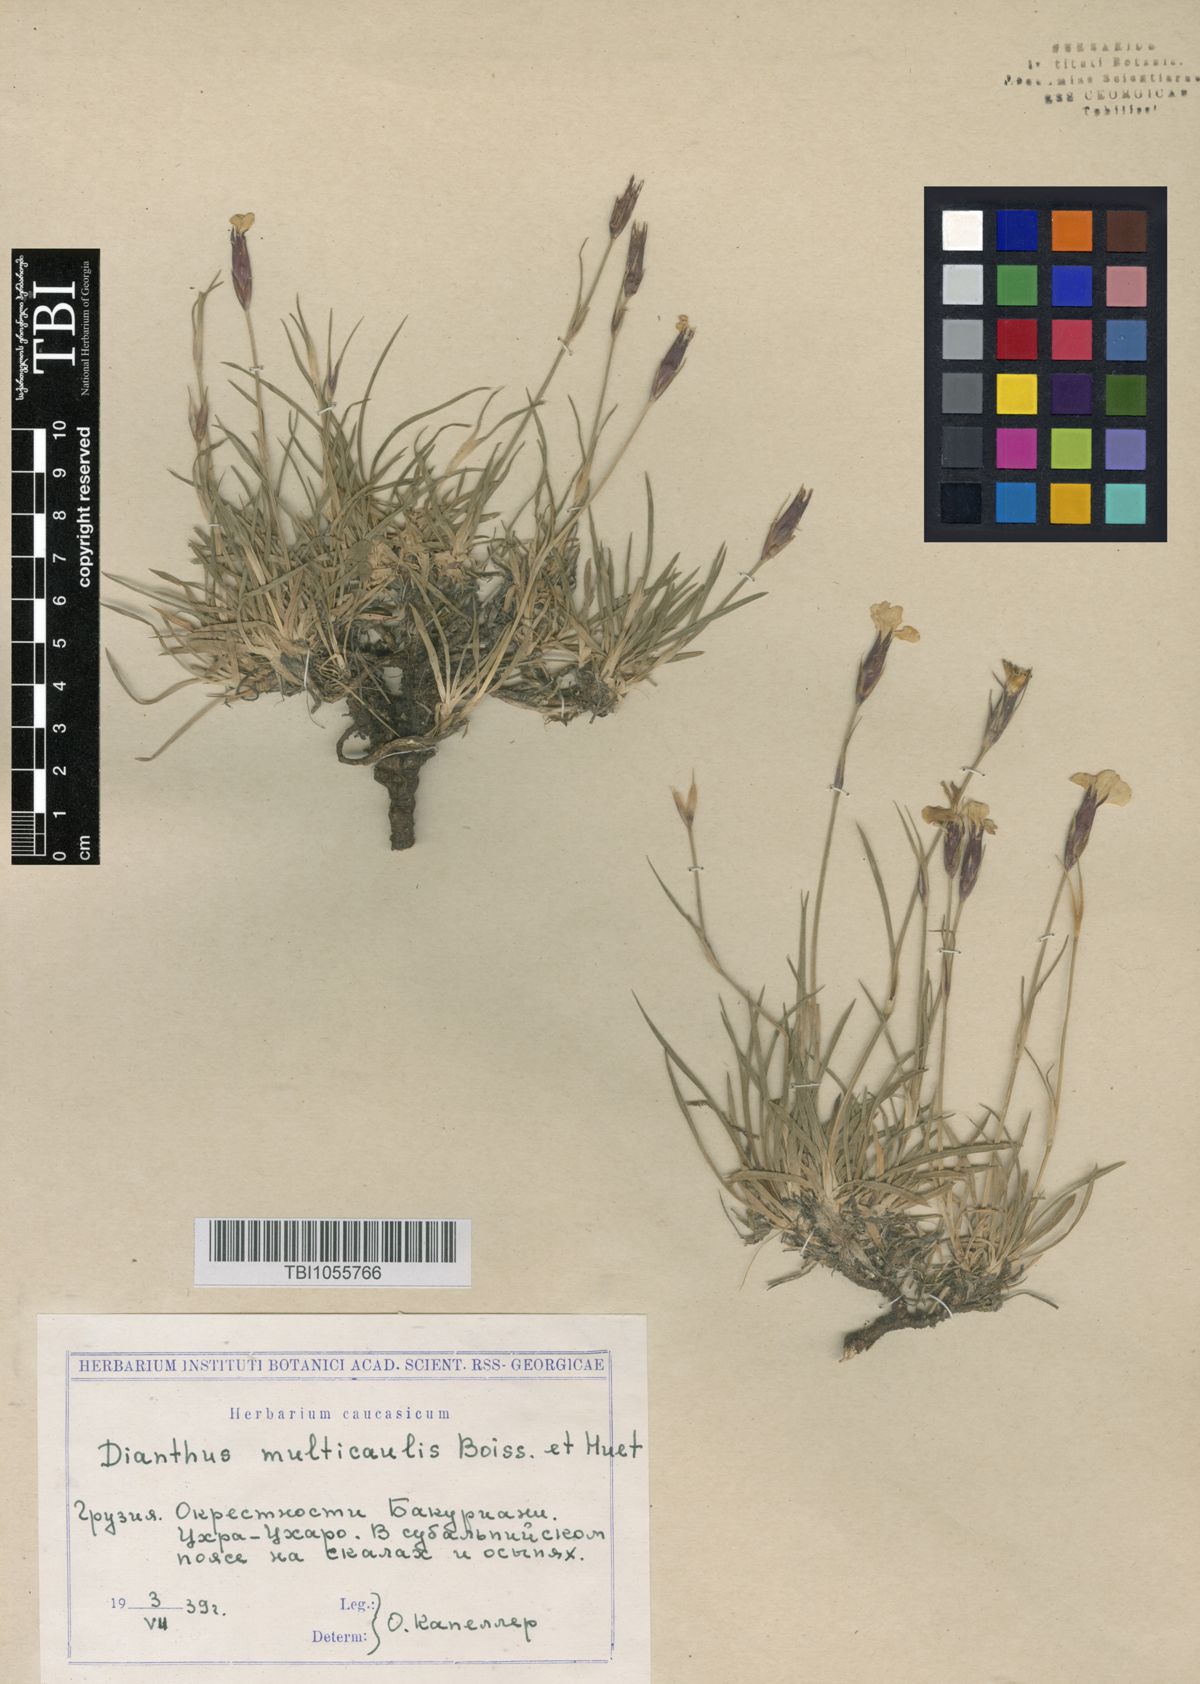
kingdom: Plantae
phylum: Tracheophyta
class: Magnoliopsida
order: Caryophyllales
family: Caryophyllaceae
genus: Dianthus
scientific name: Dianthus cretaceus
